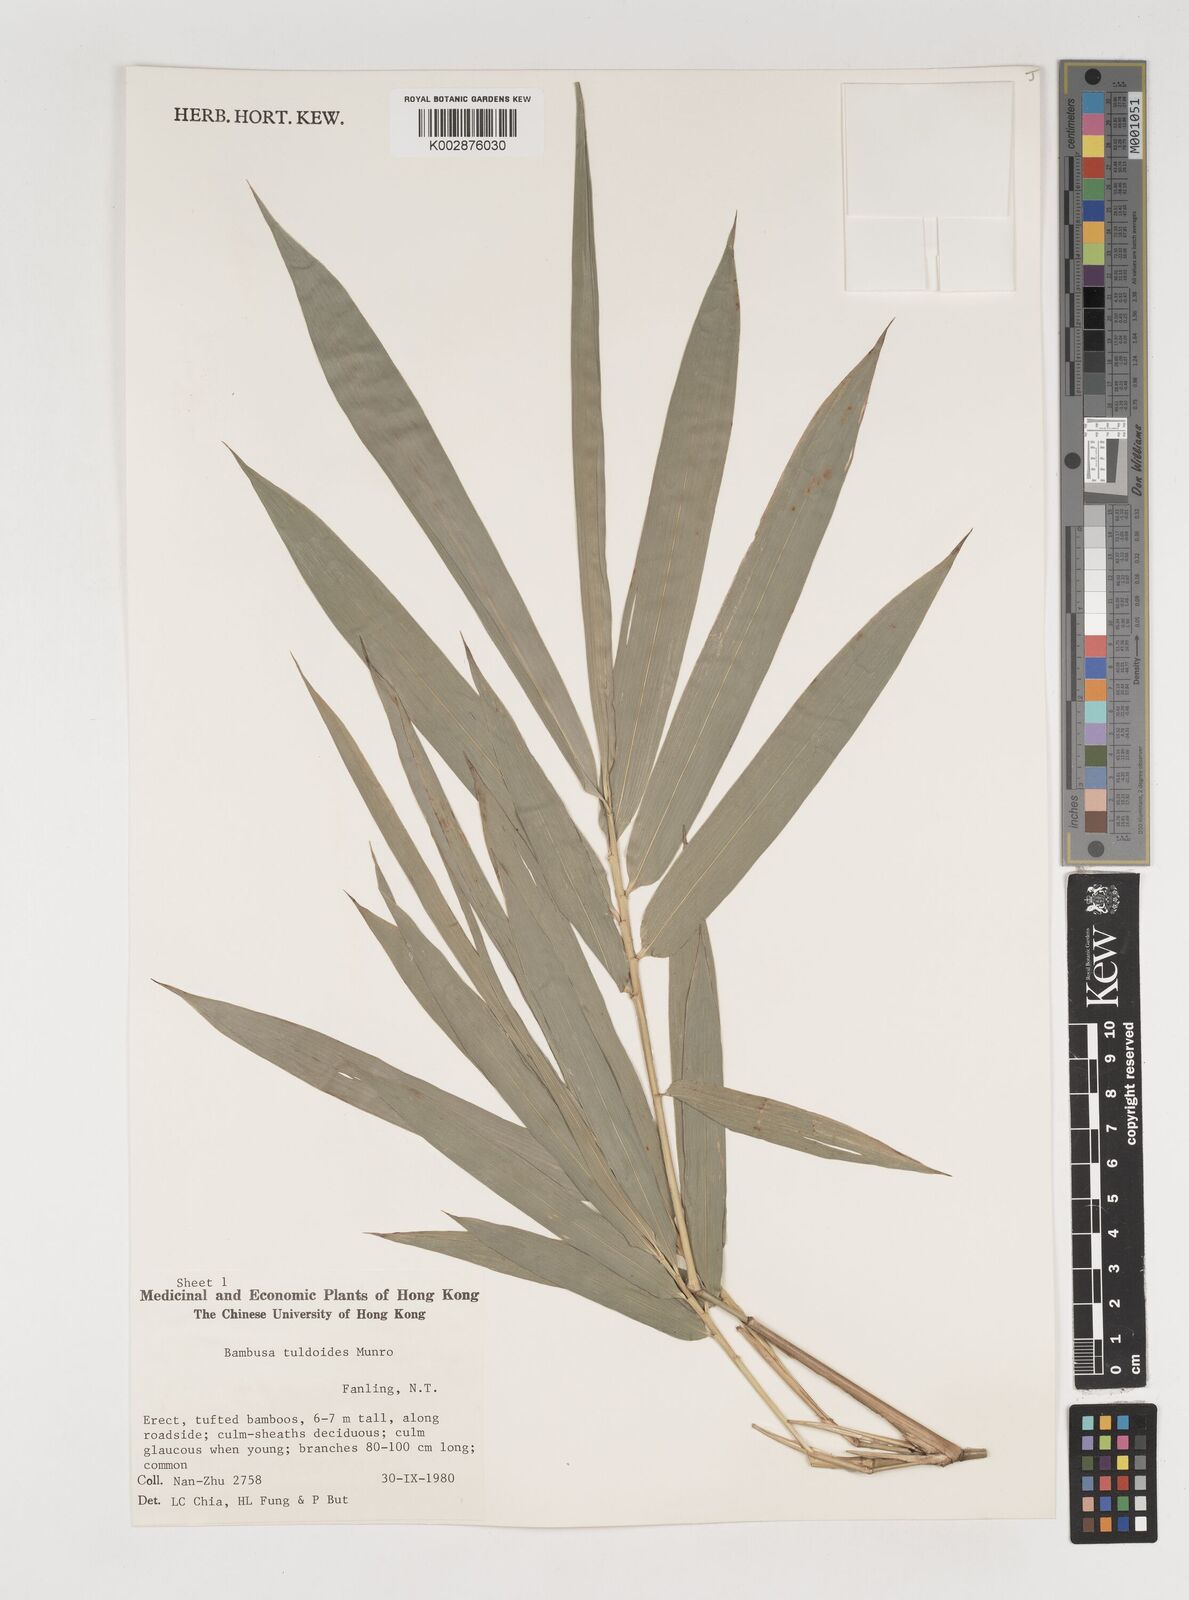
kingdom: Plantae
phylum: Tracheophyta
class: Liliopsida
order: Poales
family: Poaceae
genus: Bambusa
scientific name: Bambusa tuldoides
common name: Verdant bamboo
